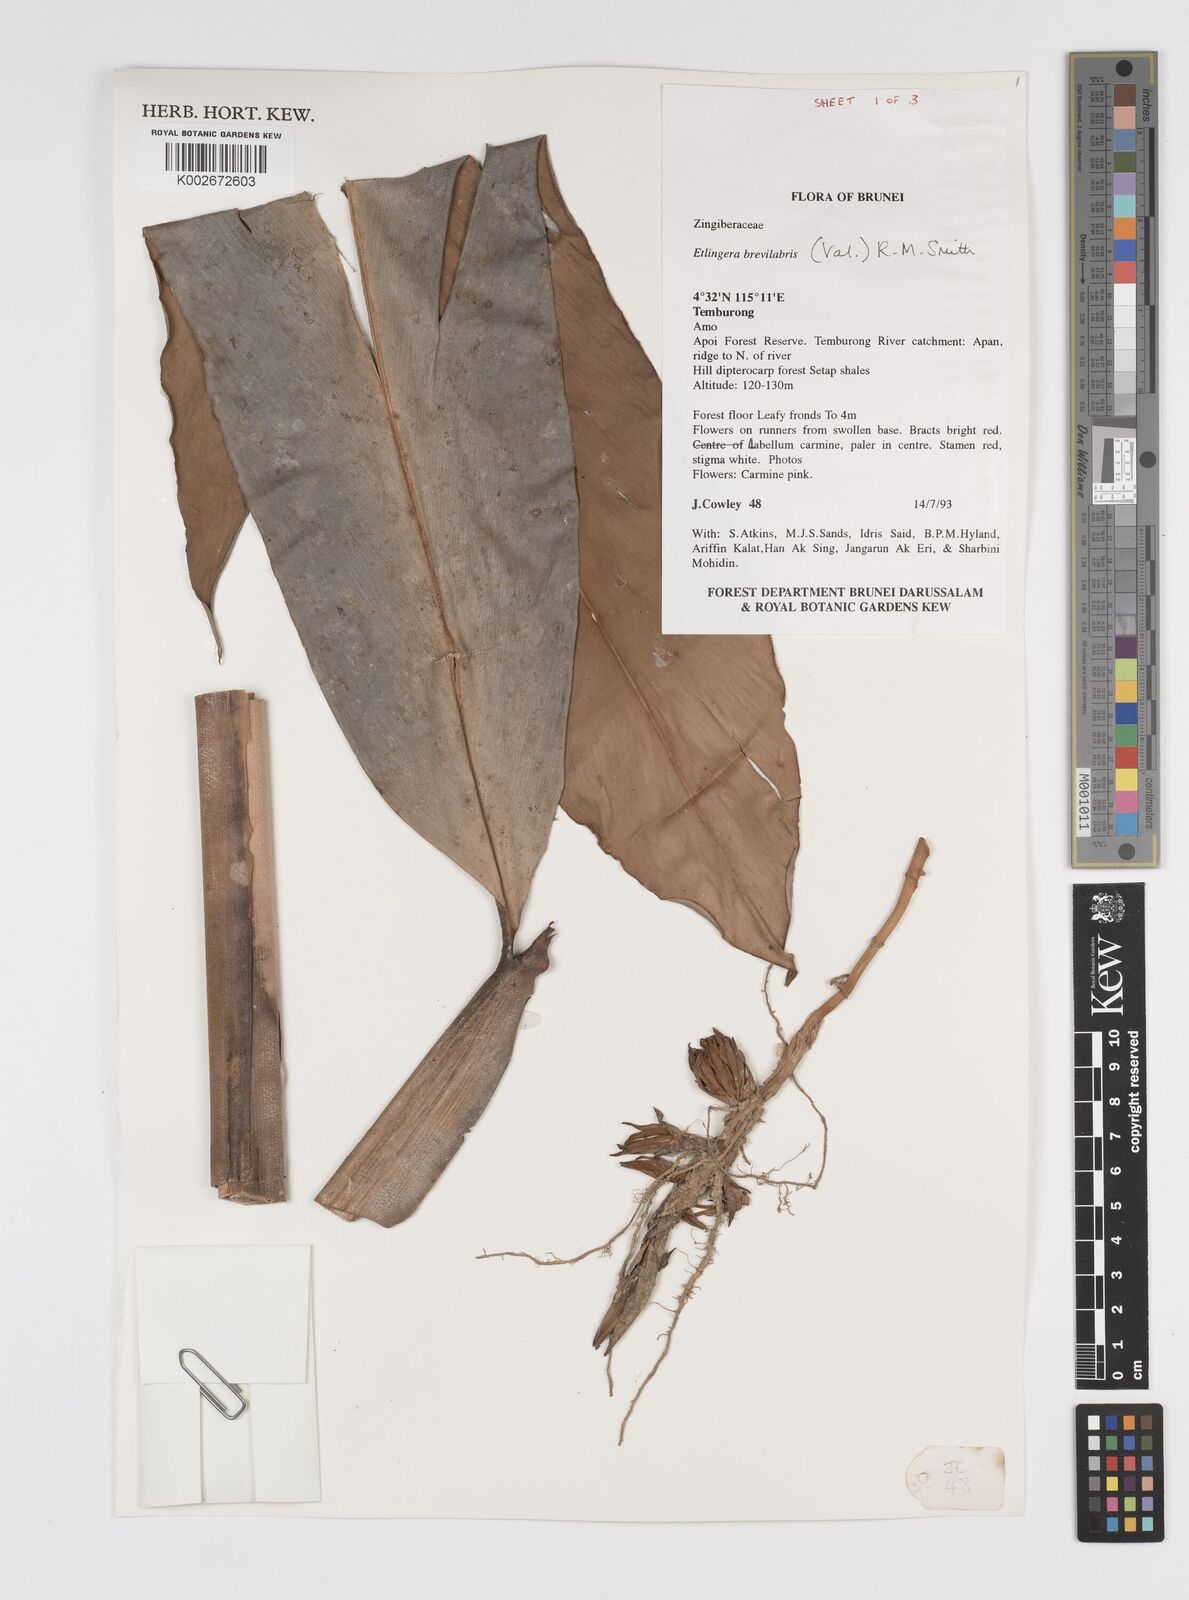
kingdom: Plantae
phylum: Tracheophyta
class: Liliopsida
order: Zingiberales
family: Zingiberaceae
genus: Etlingera
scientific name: Etlingera
